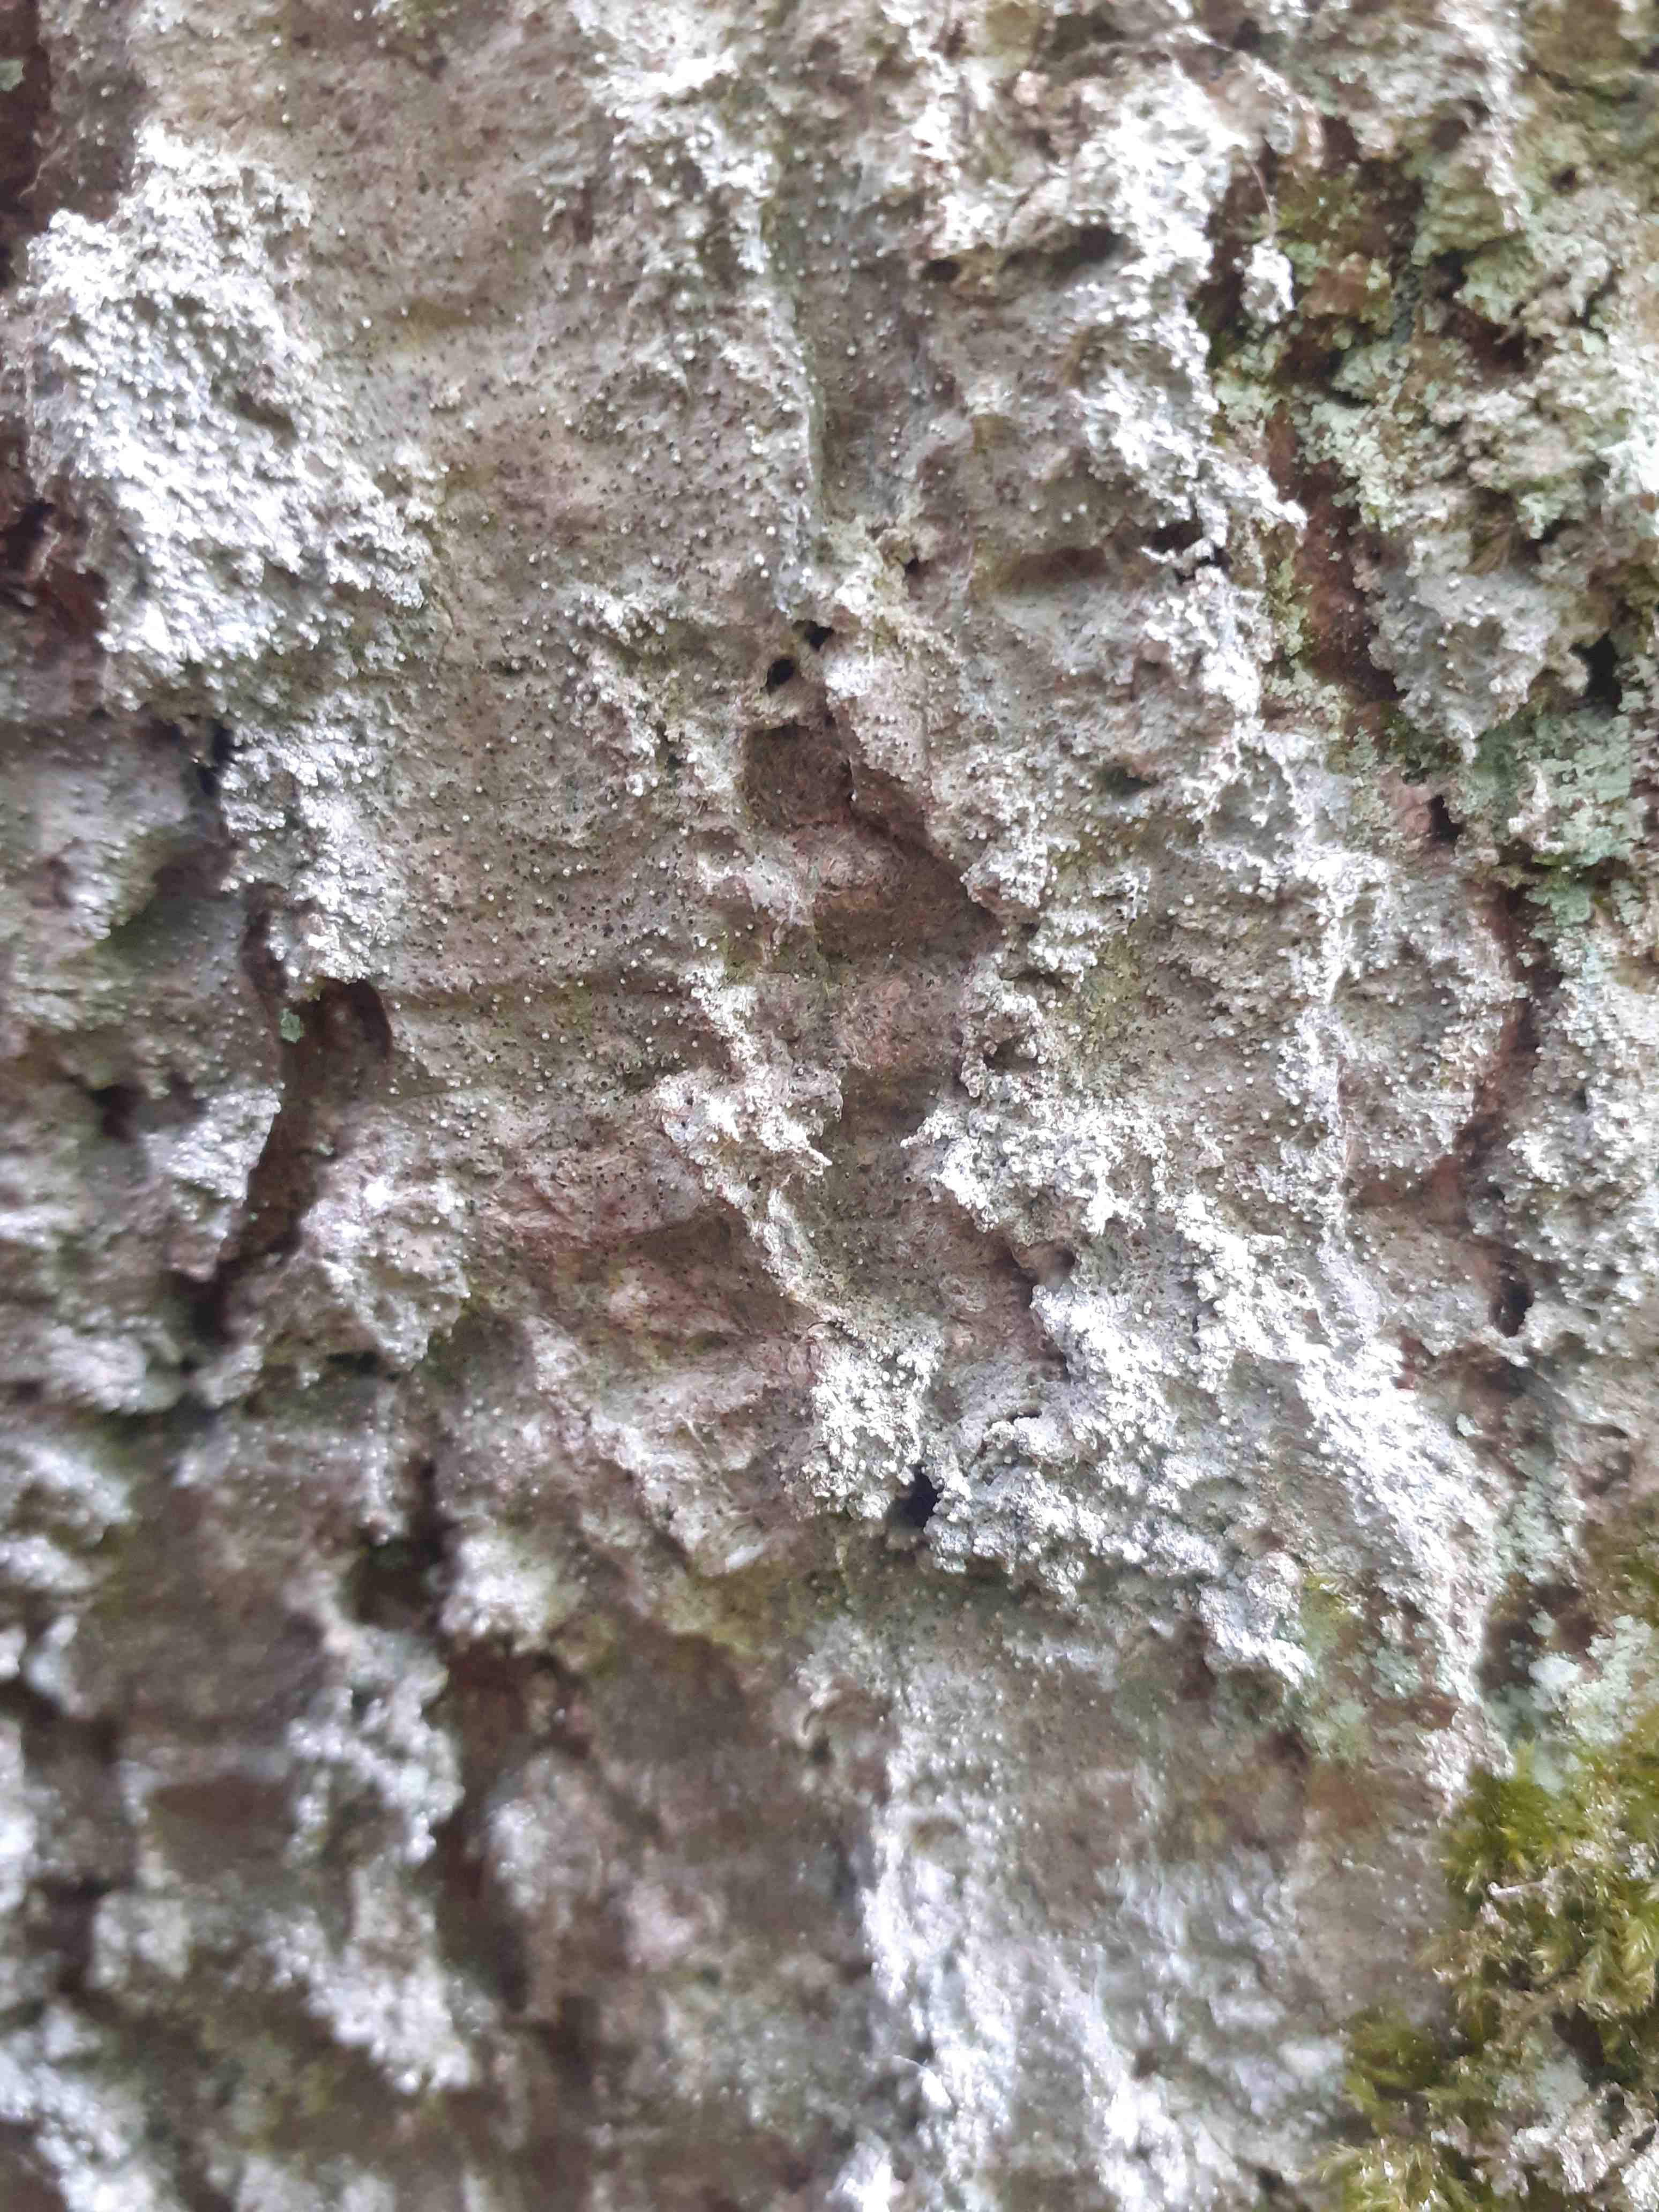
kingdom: Fungi
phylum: Ascomycota
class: Arthoniomycetes
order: Arthoniales
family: Roccellaceae
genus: Lecanactis
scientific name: Lecanactis abietina
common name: grå dugskivelav
